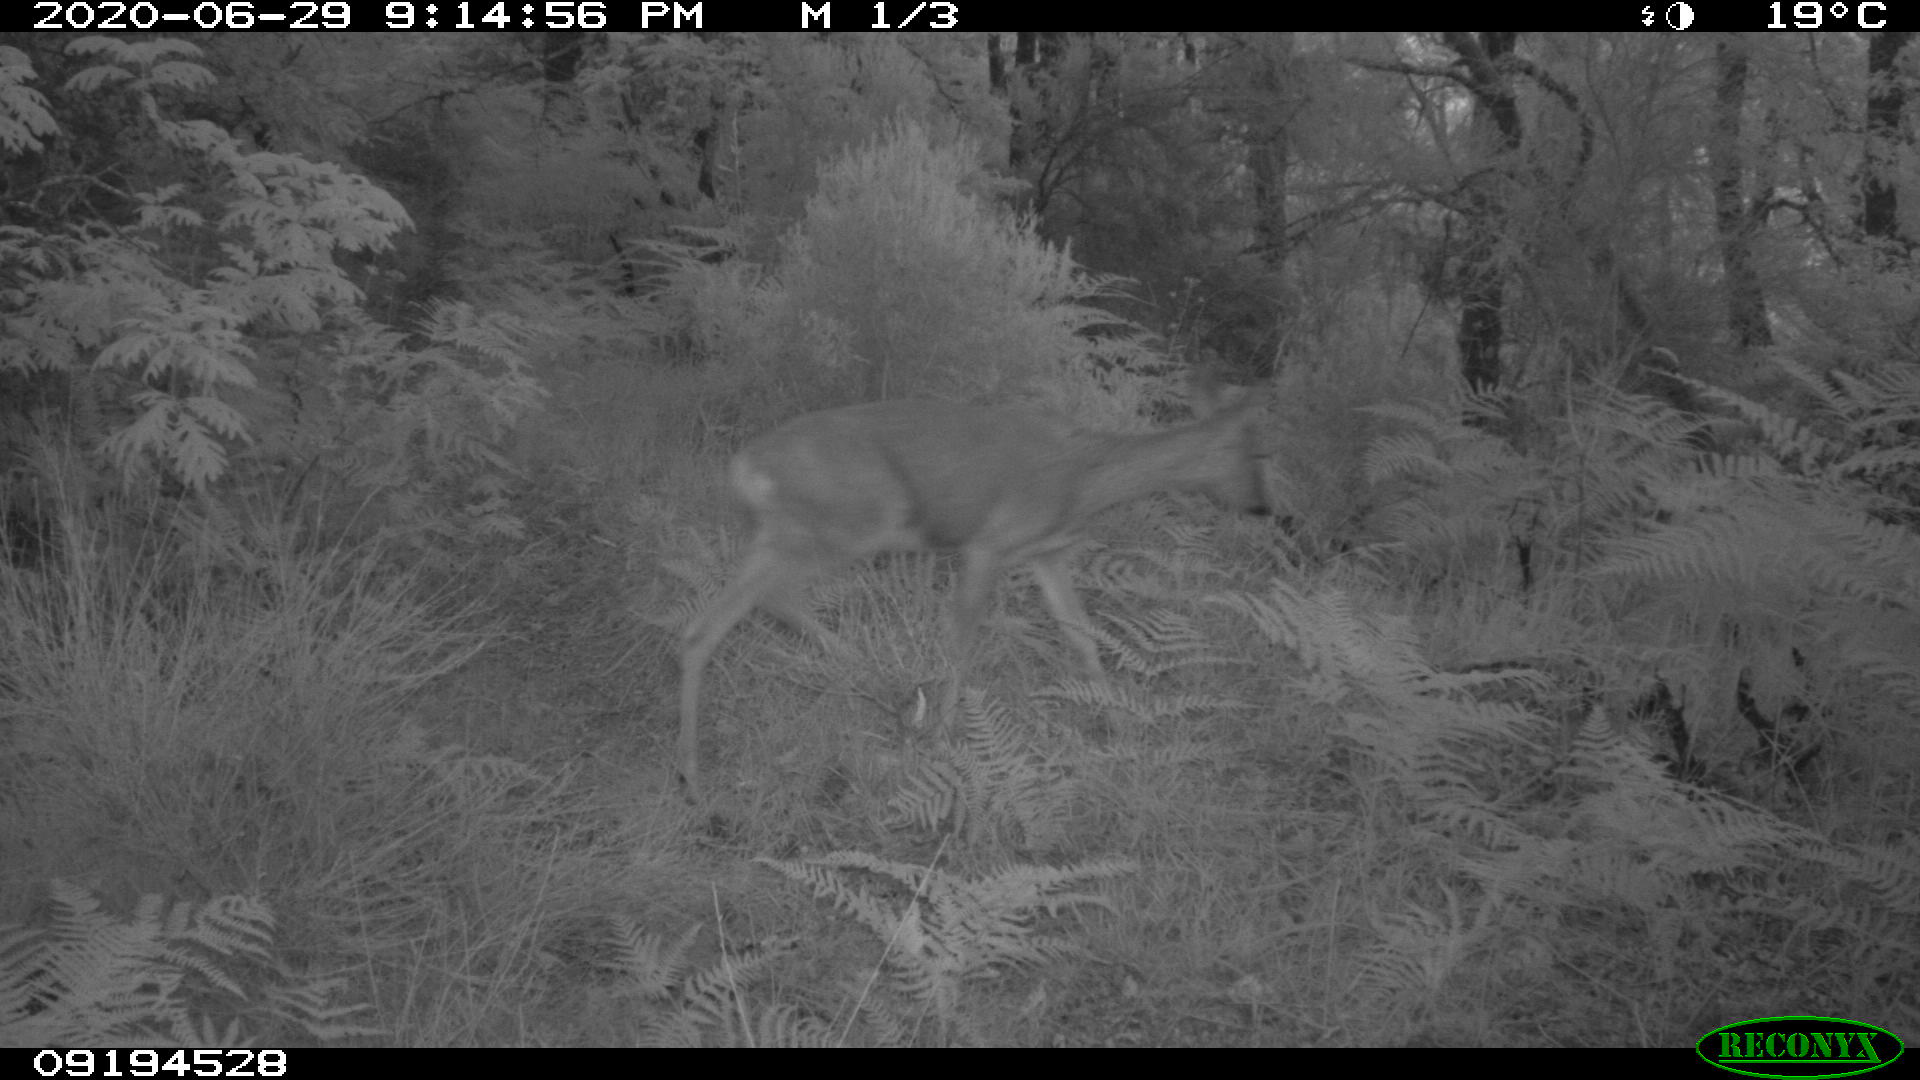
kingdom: Animalia
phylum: Chordata
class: Mammalia
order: Artiodactyla
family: Cervidae
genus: Capreolus
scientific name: Capreolus capreolus
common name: Western roe deer
